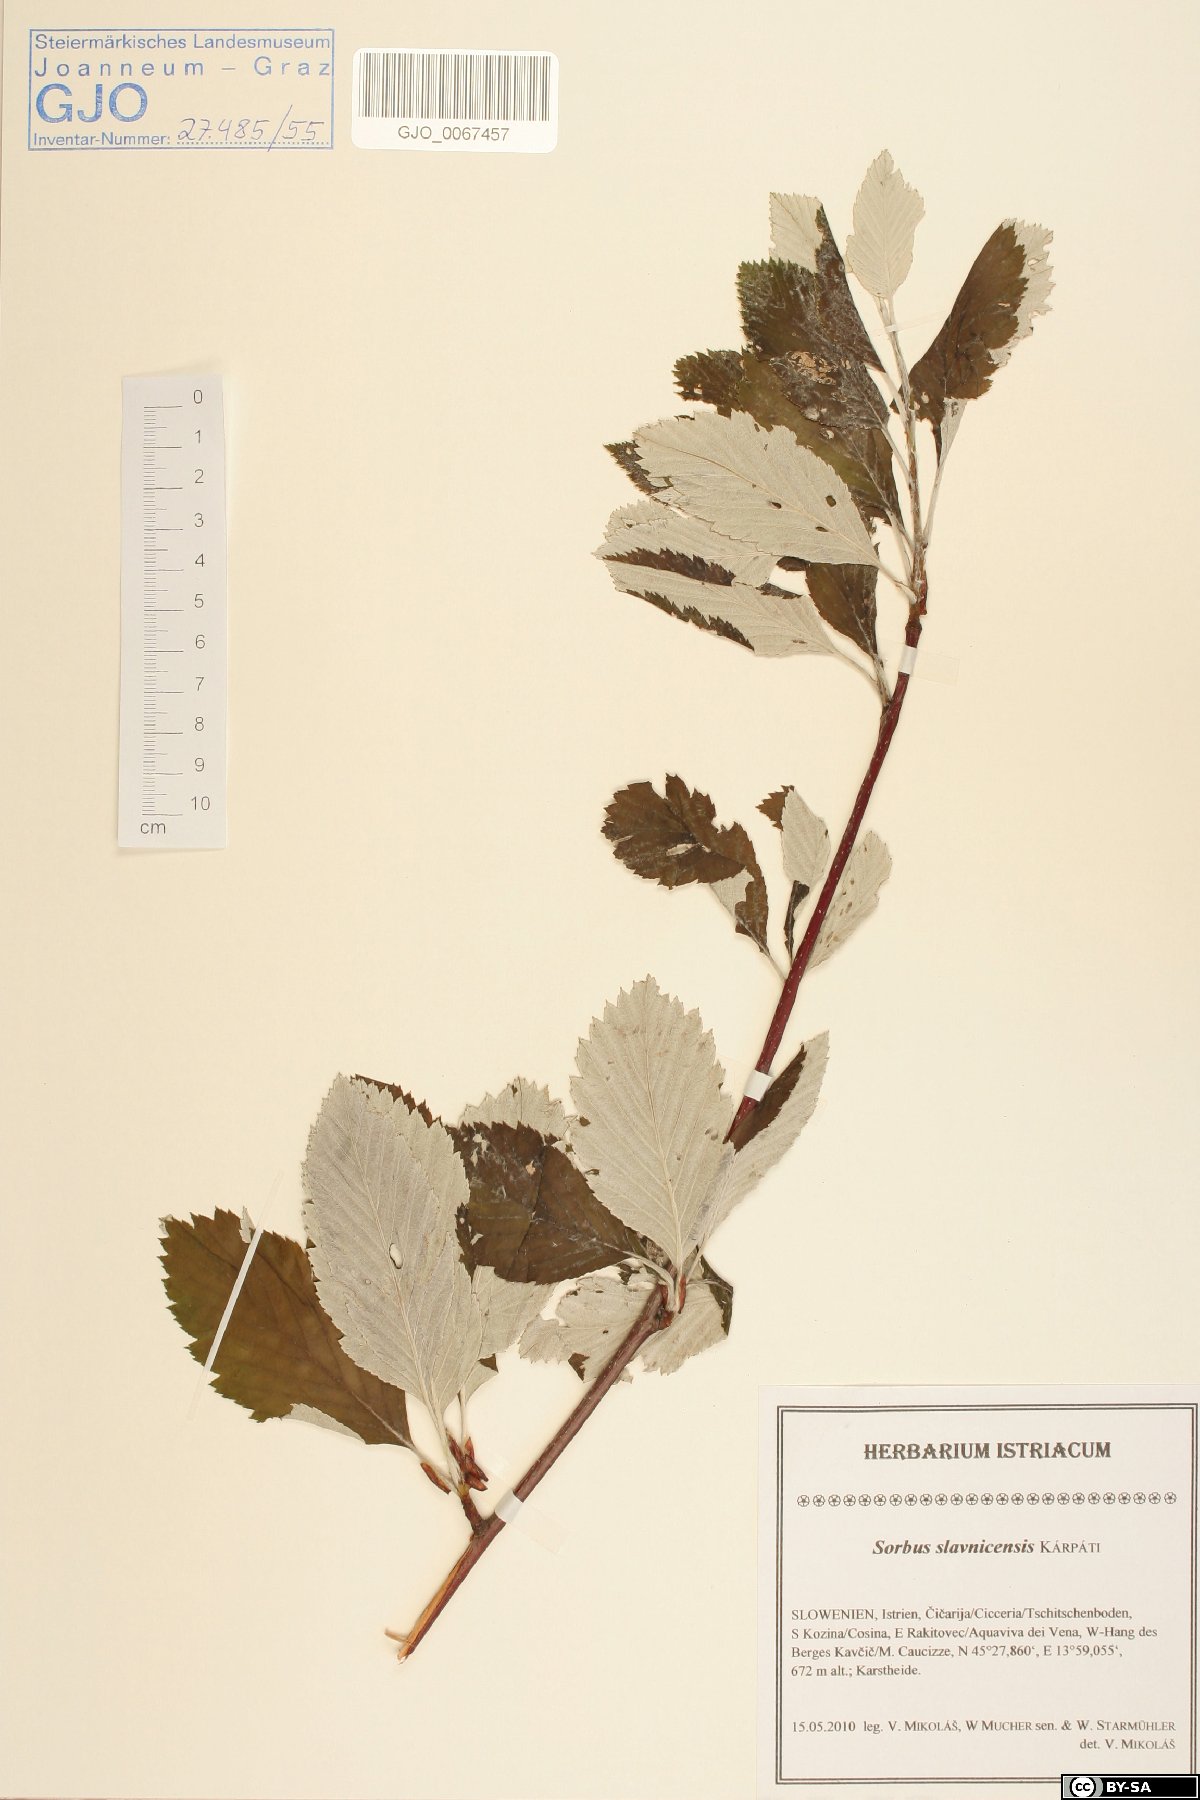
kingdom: Plantae
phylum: Tracheophyta
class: Magnoliopsida
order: Rosales
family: Rosaceae
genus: Karpatiosorbus
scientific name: Karpatiosorbus slavnicensis
